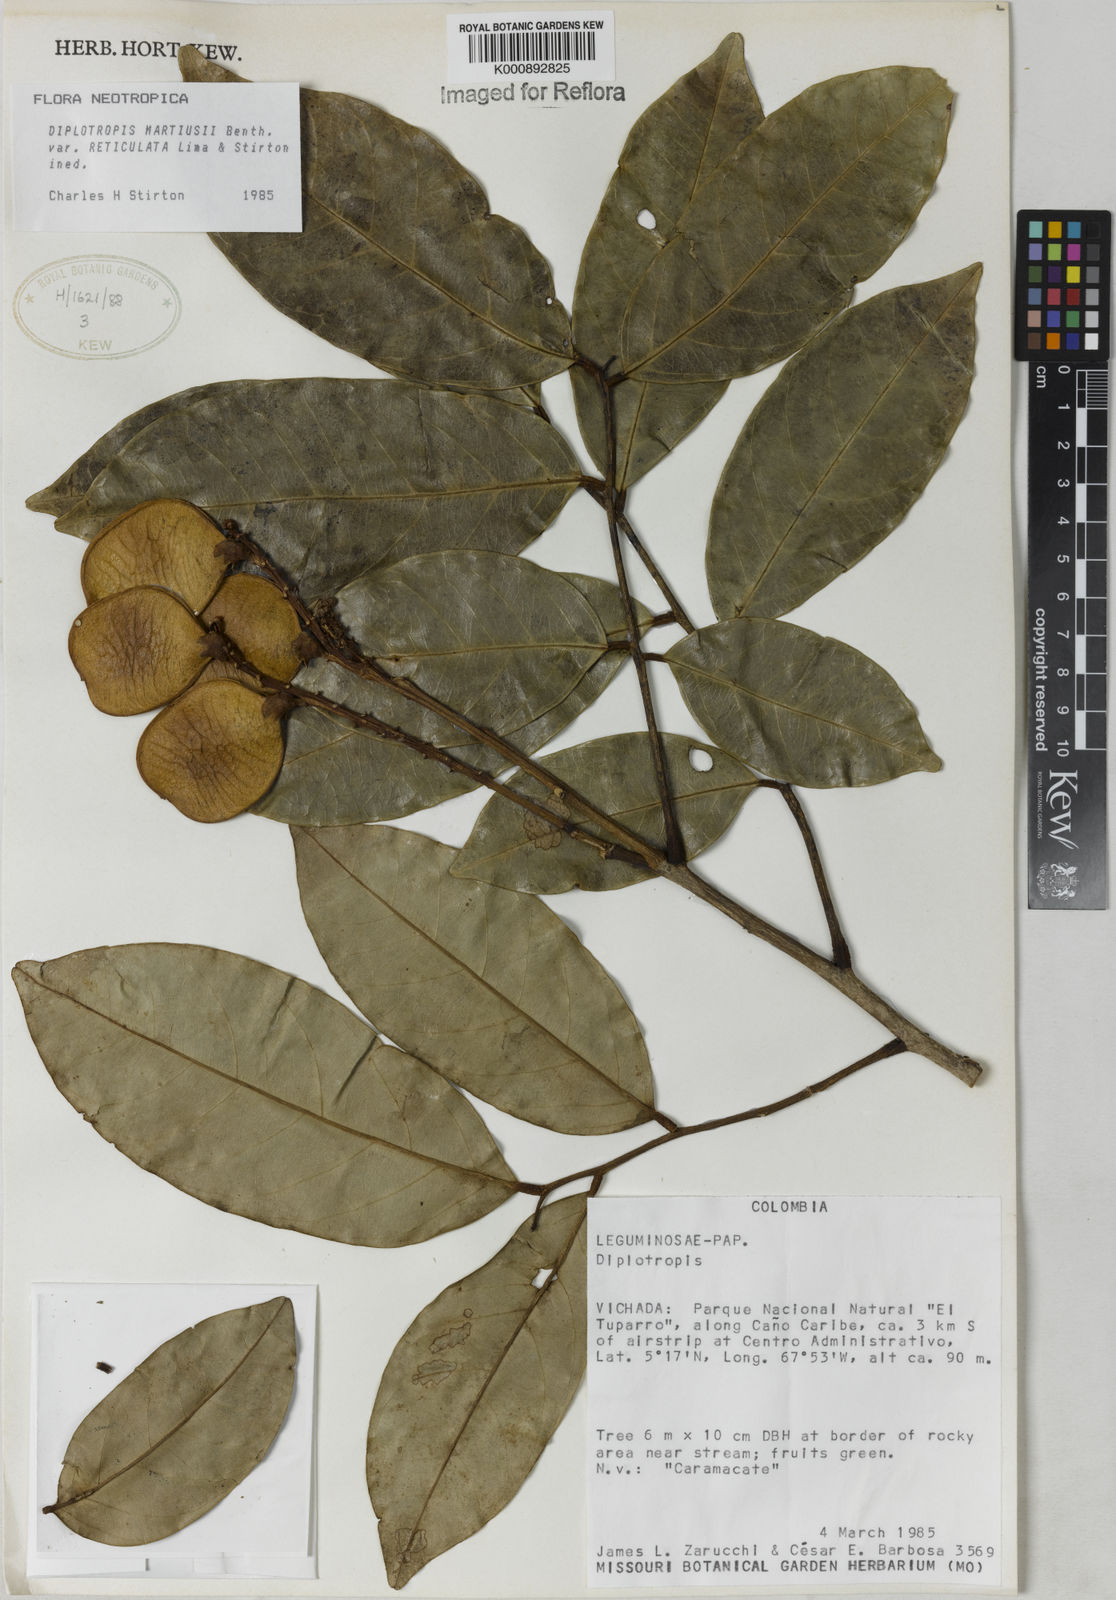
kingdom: Plantae
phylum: Tracheophyta
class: Magnoliopsida
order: Fabales
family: Fabaceae
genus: Diplotropis
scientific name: Diplotropis
